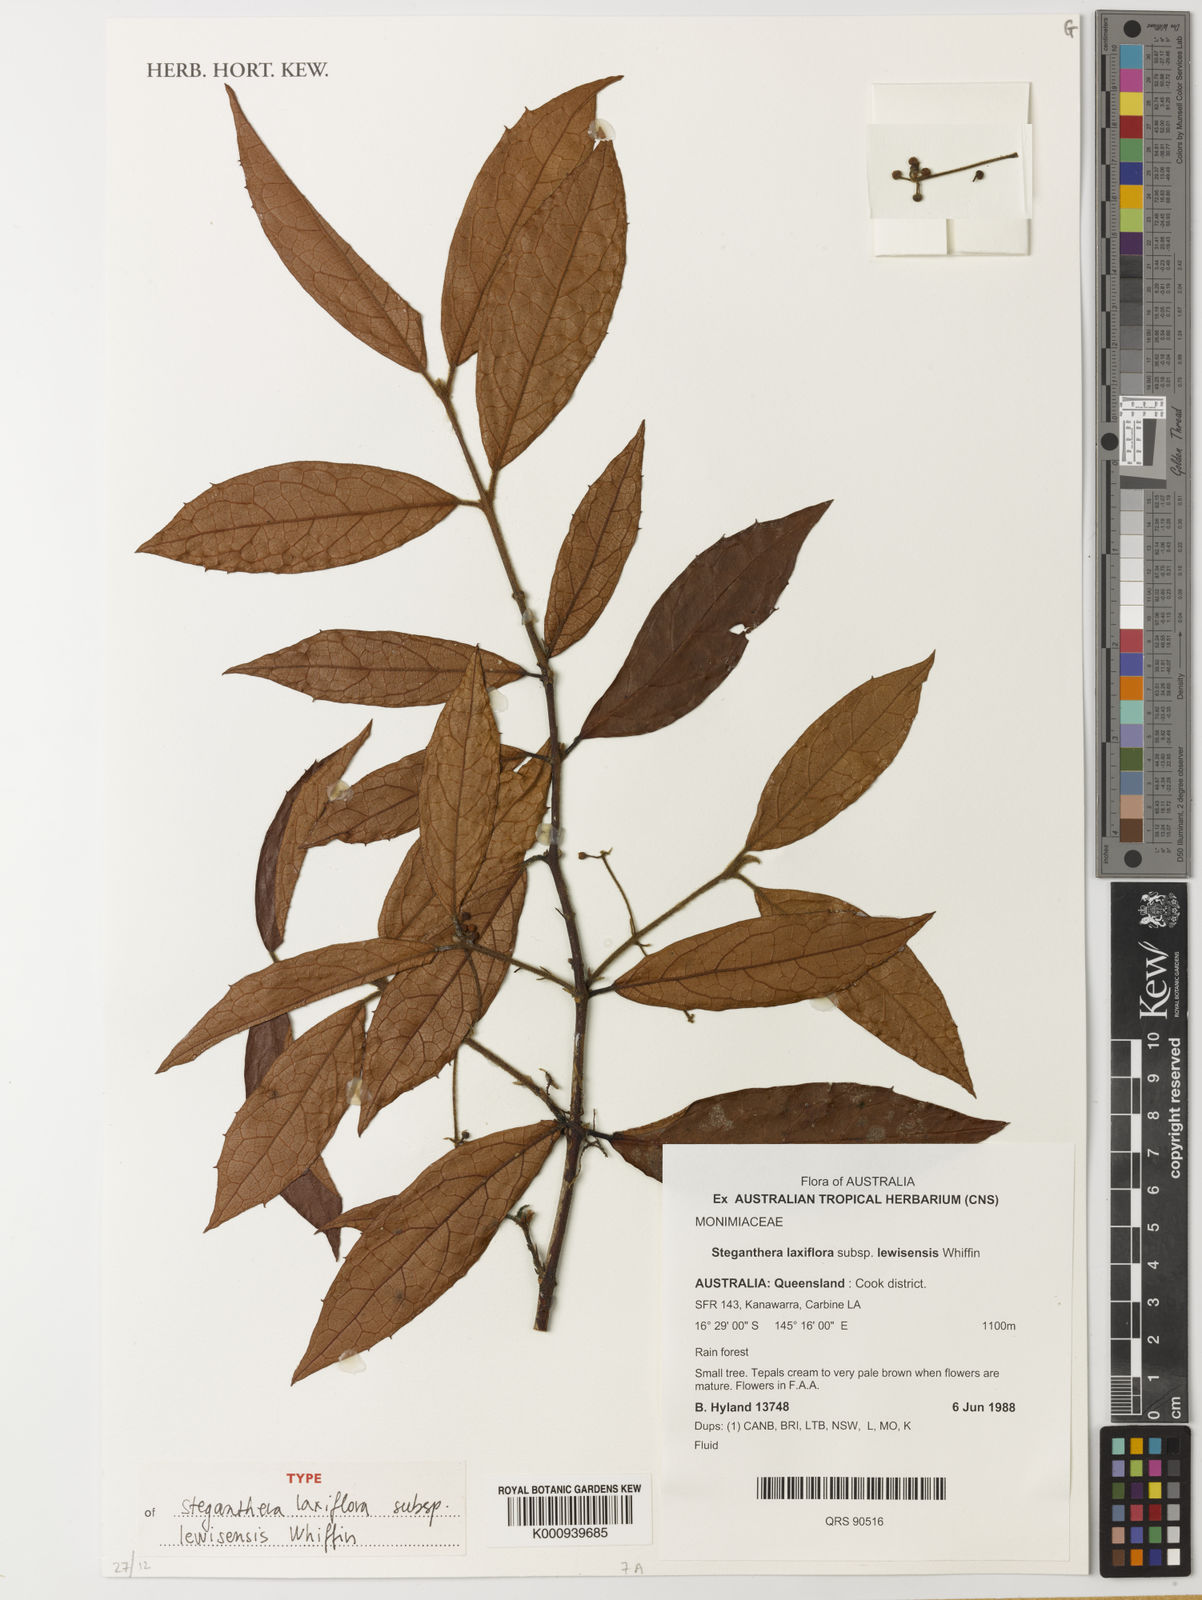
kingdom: Plantae
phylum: Tracheophyta
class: Magnoliopsida
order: Laurales
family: Monimiaceae
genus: Steganthera
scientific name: Steganthera laxiflora
